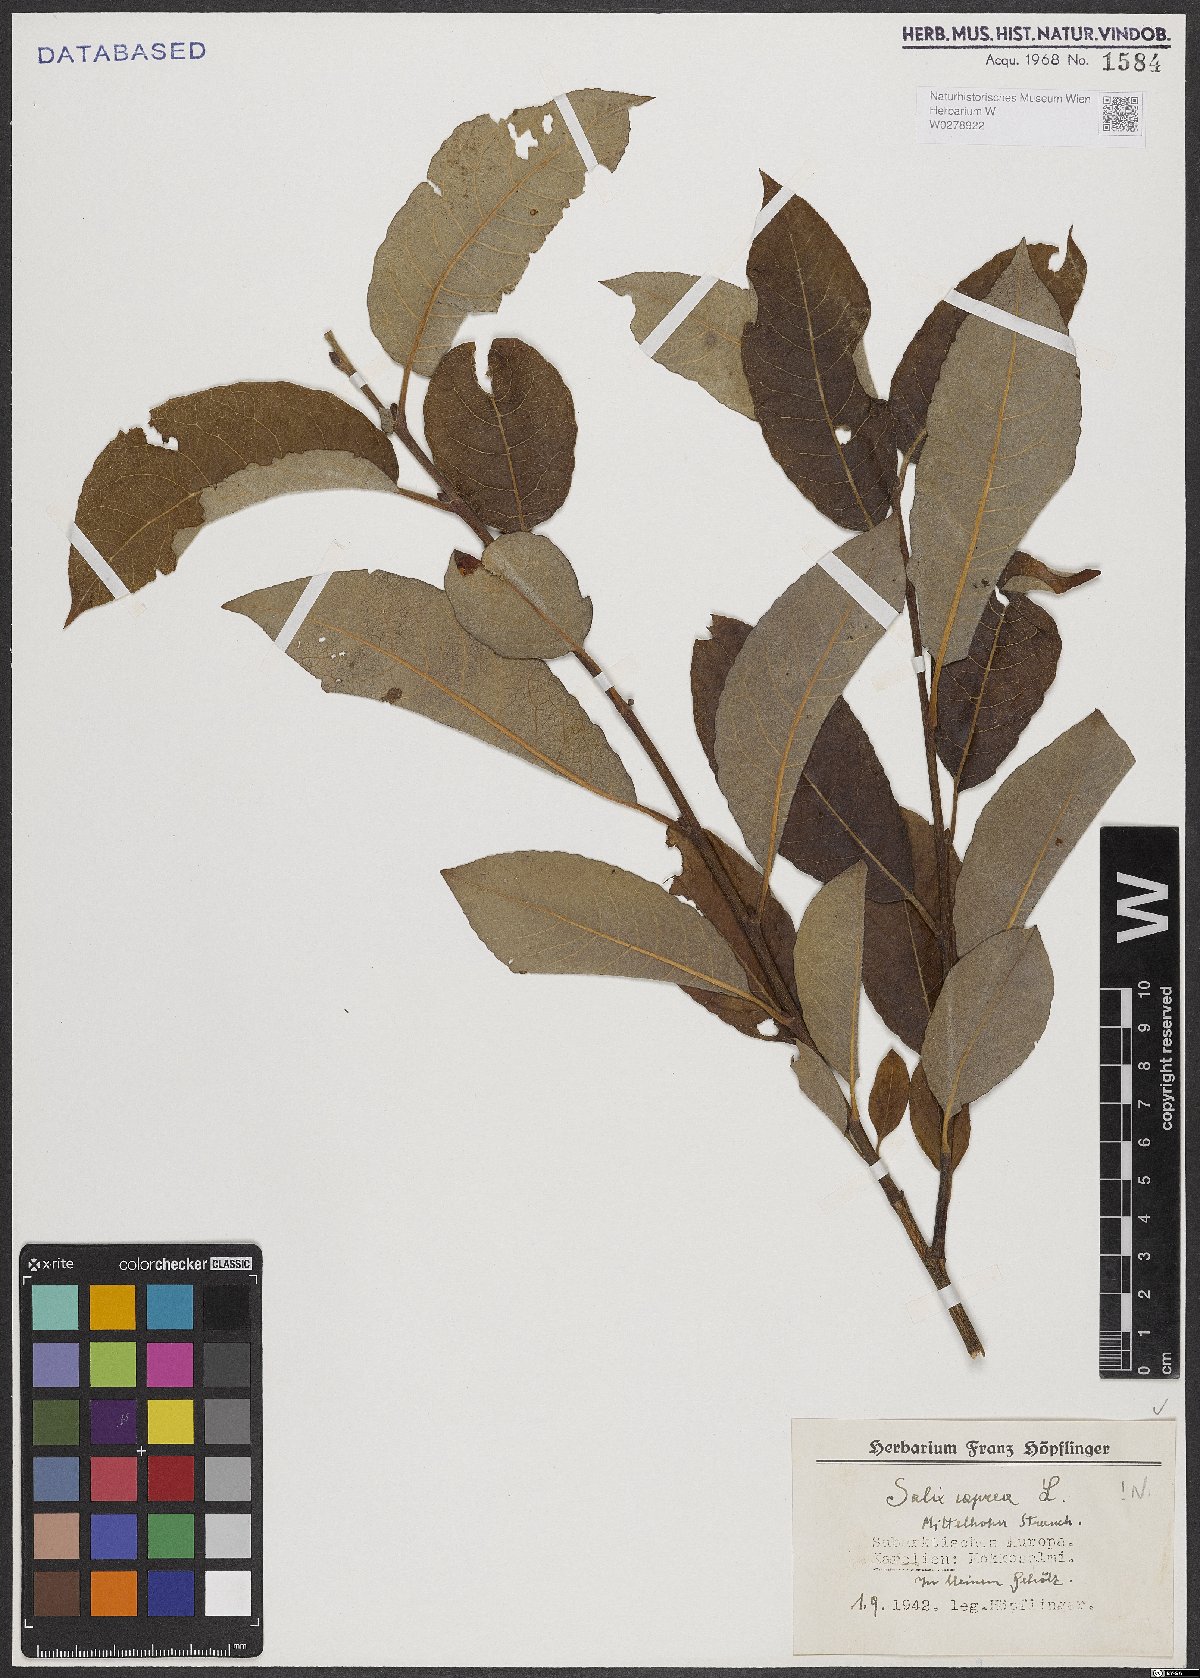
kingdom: Plantae
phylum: Tracheophyta
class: Magnoliopsida
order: Malpighiales
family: Salicaceae
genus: Salix
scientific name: Salix caprea
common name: Goat willow
